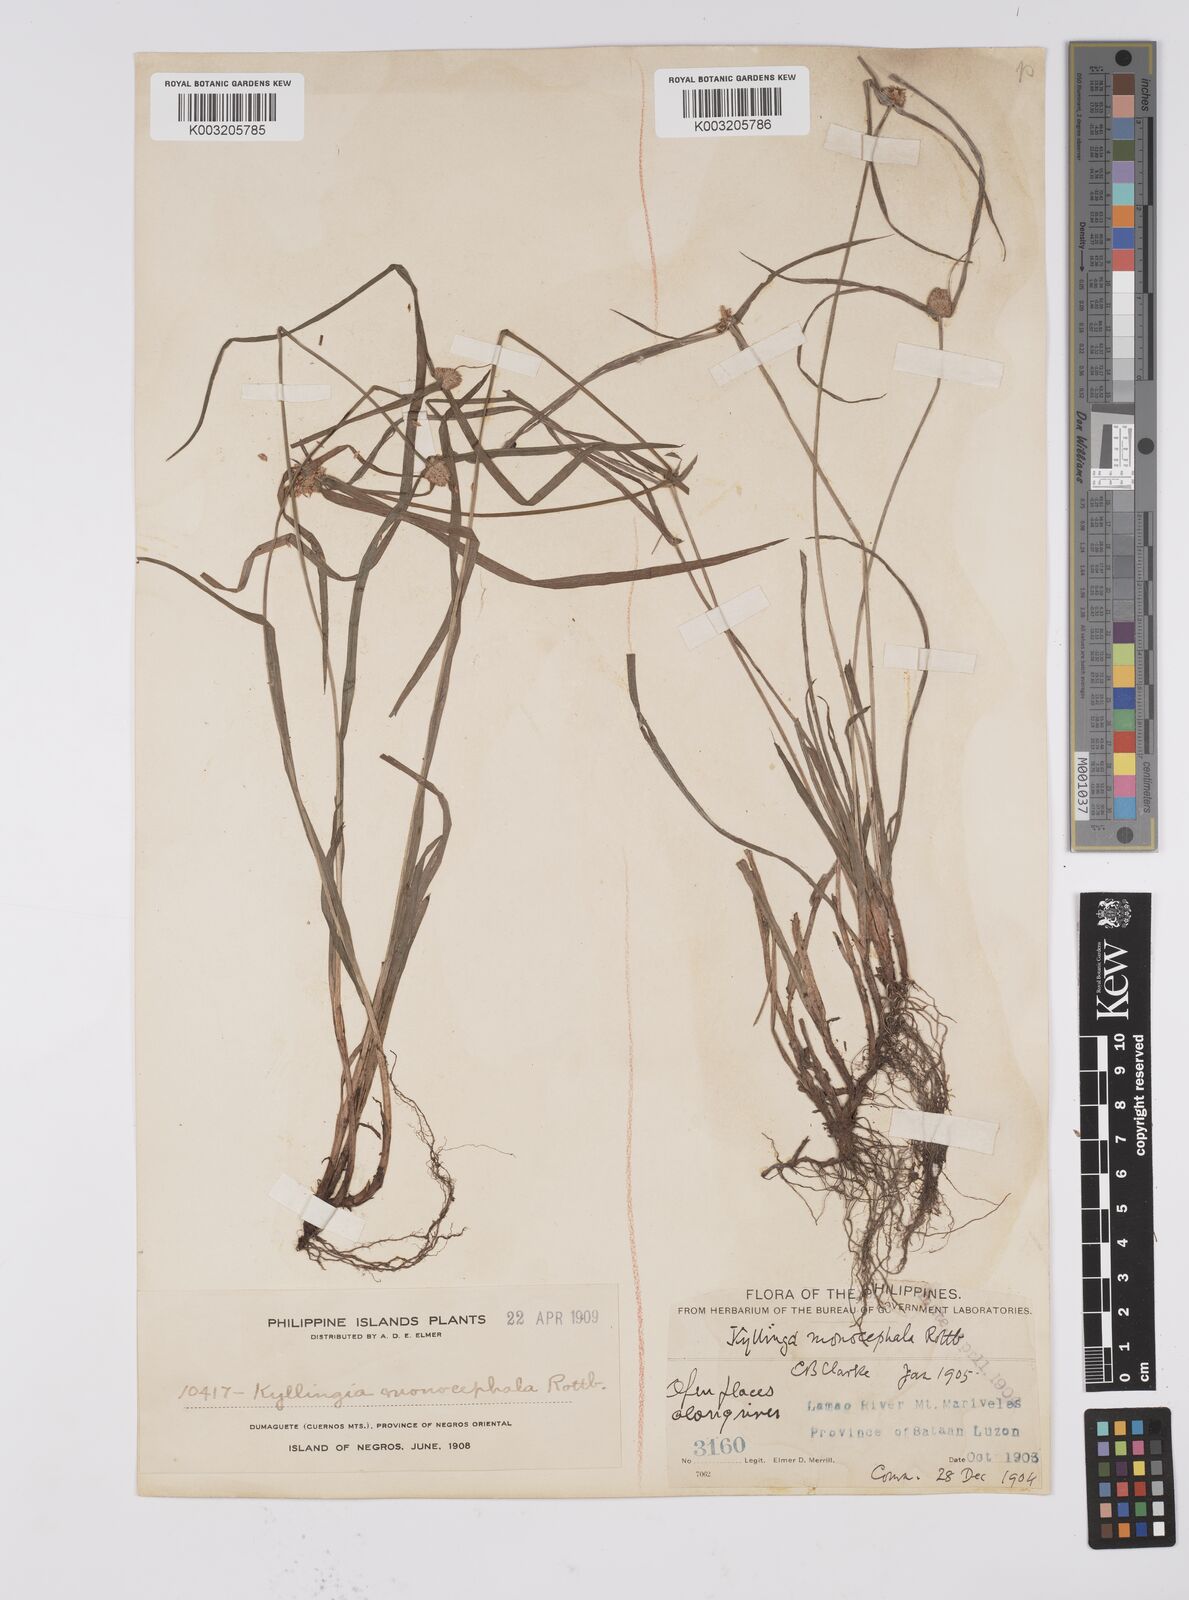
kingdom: Plantae
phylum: Tracheophyta
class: Liliopsida
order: Poales
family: Cyperaceae
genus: Cyperus
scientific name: Cyperus nemoralis
